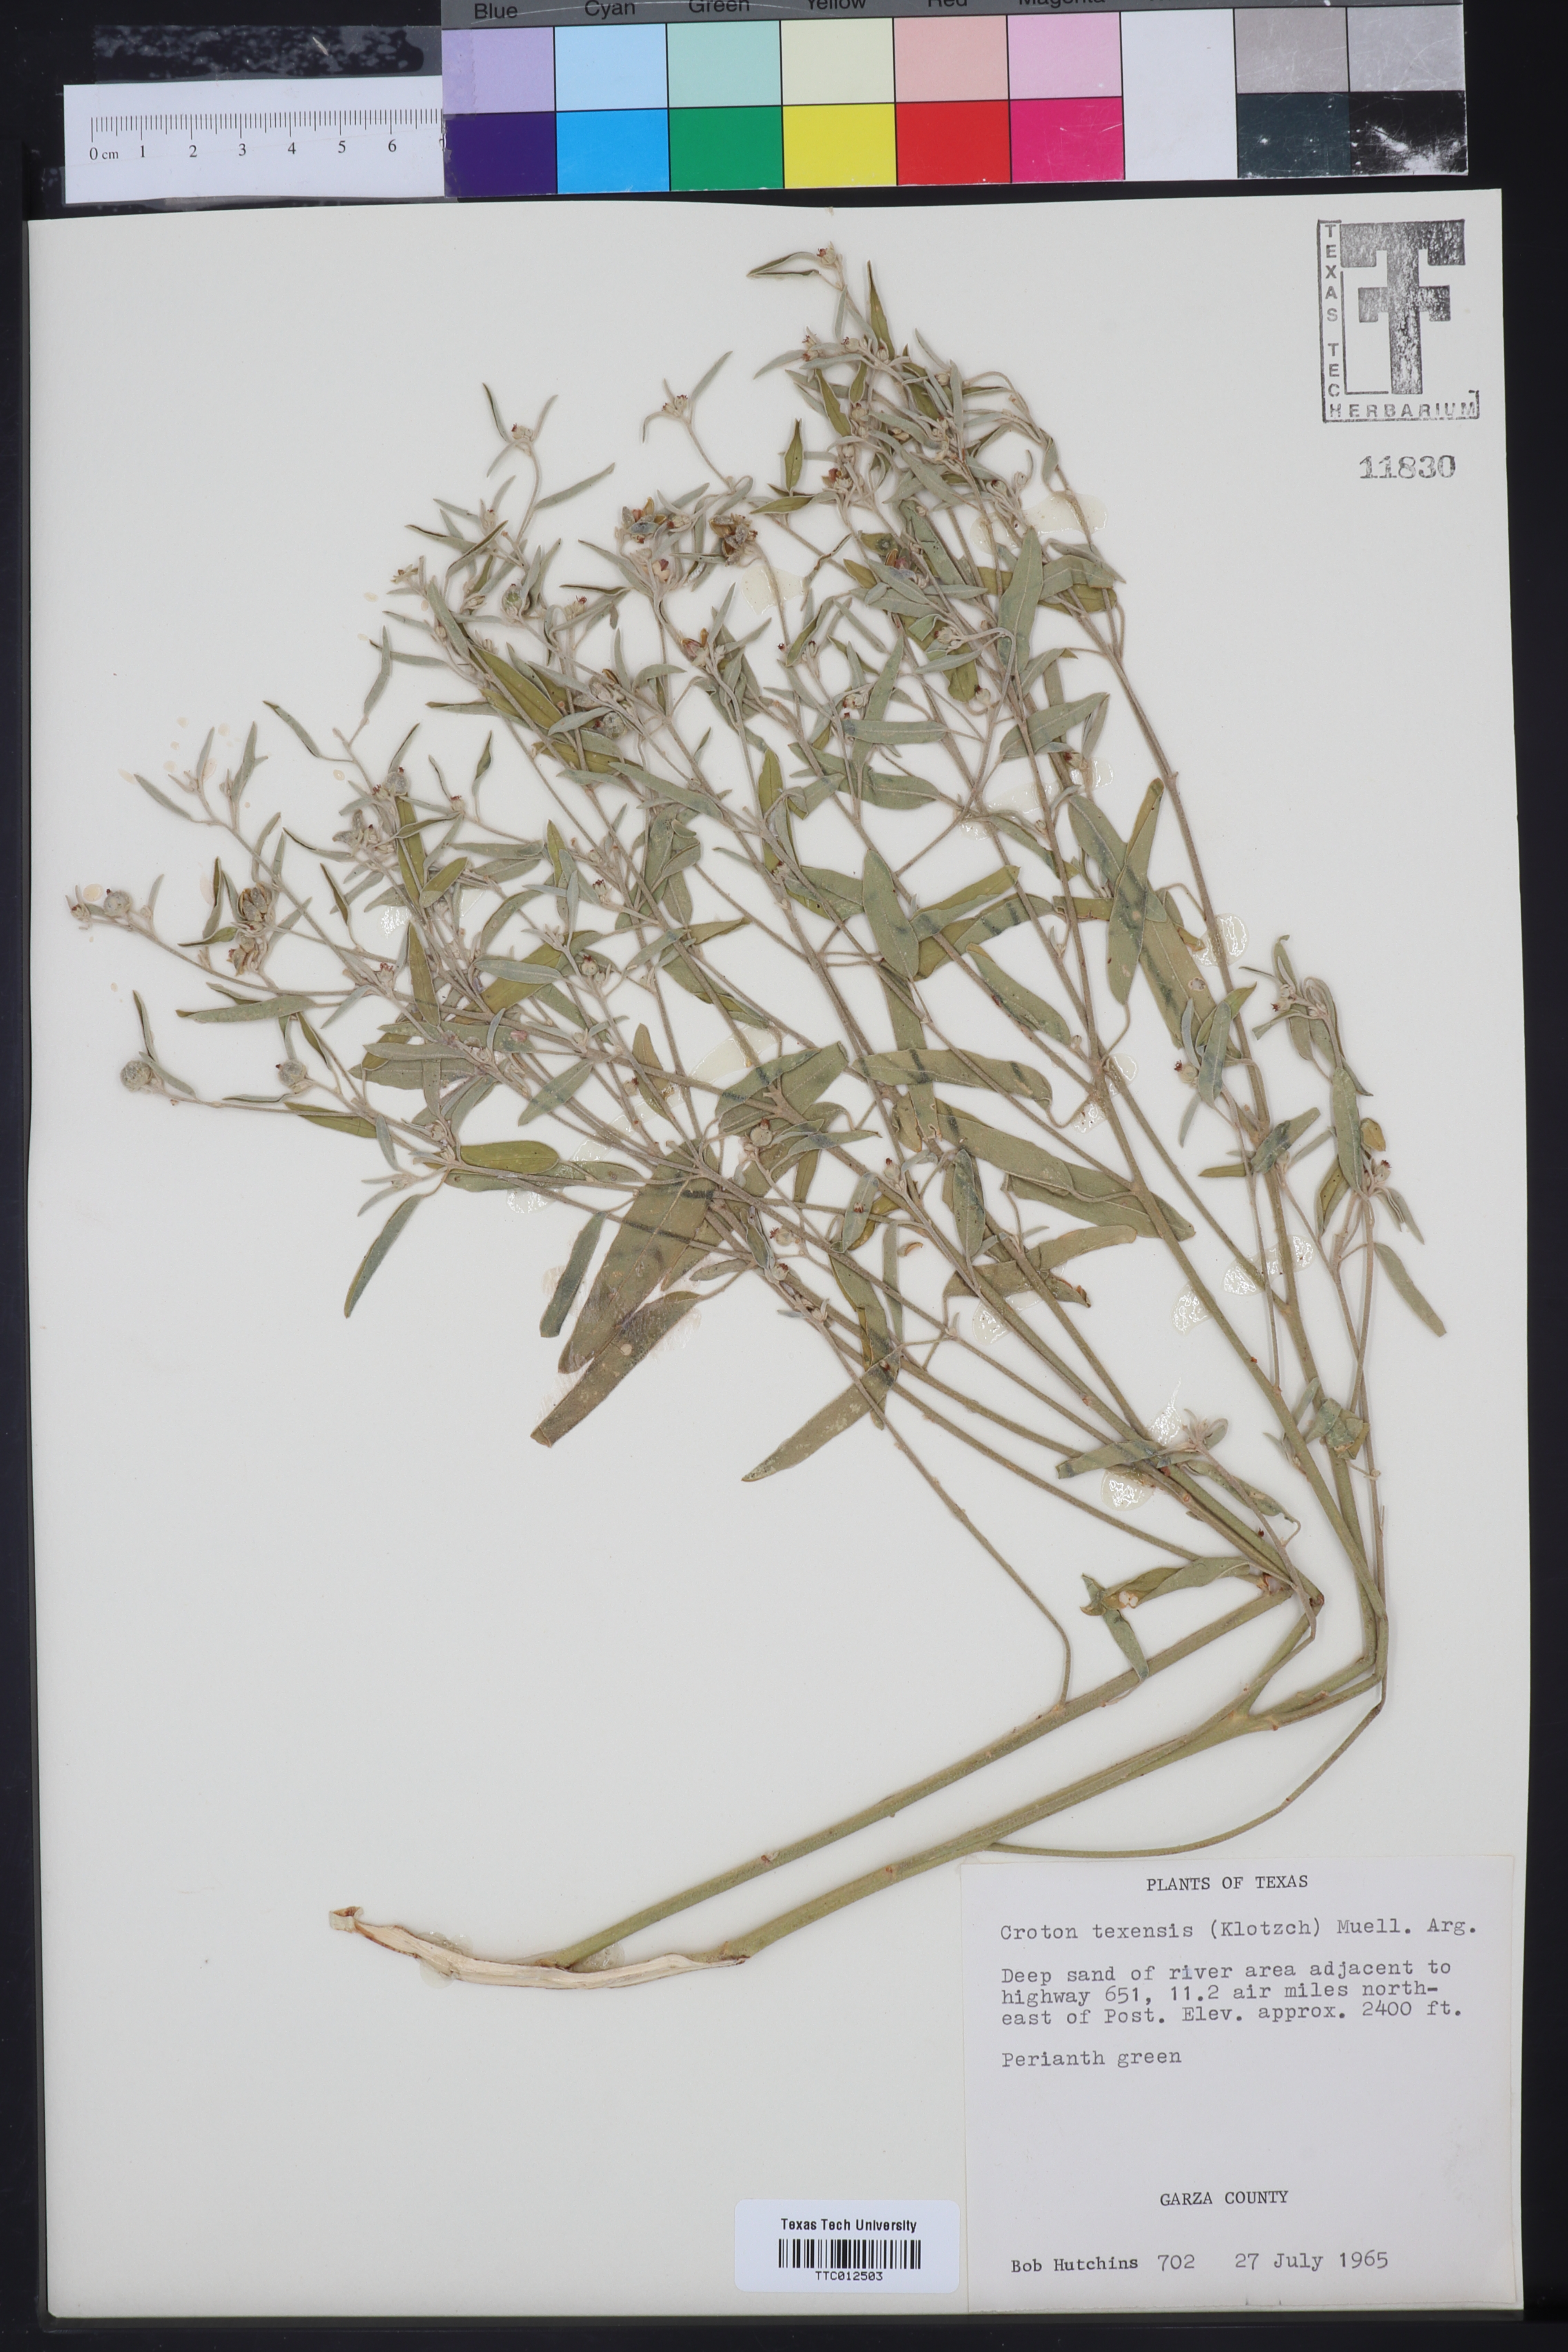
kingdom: Plantae
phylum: Tracheophyta
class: Magnoliopsida
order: Malpighiales
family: Euphorbiaceae
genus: Croton
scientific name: Croton texensis
